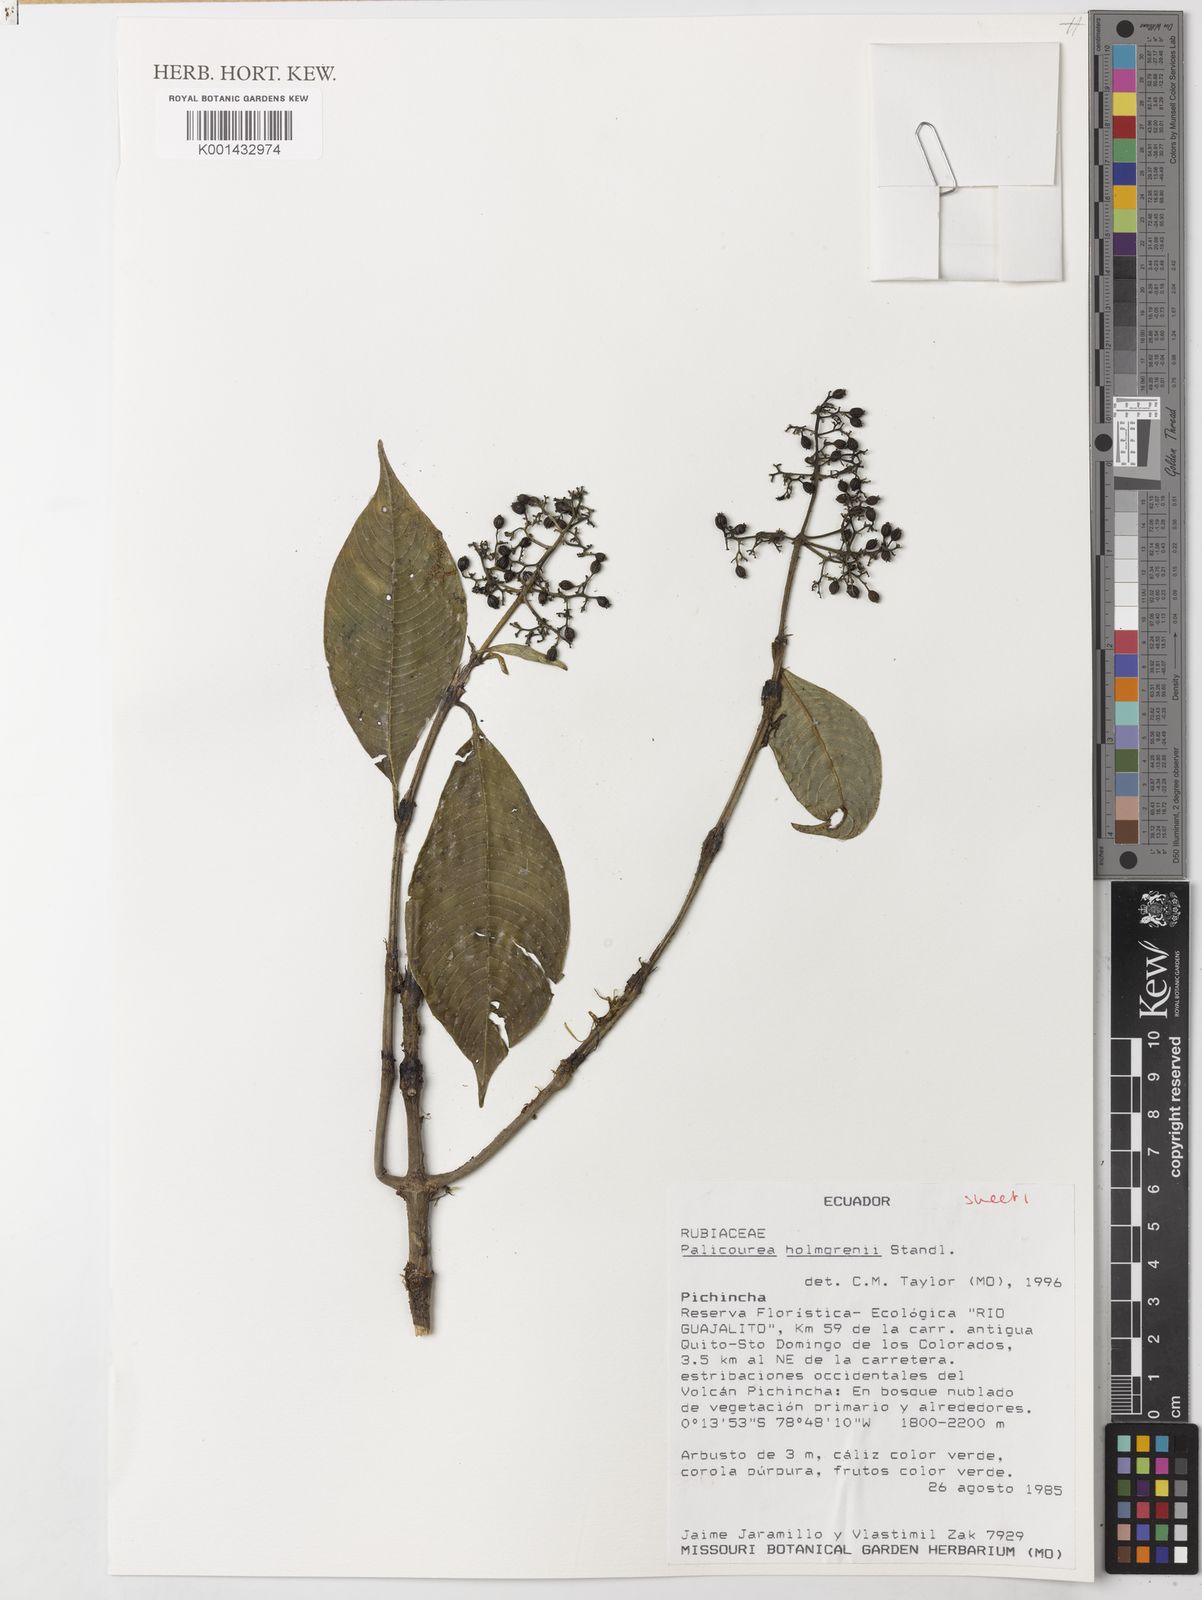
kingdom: Plantae
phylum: Tracheophyta
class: Magnoliopsida
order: Gentianales
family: Rubiaceae
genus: Palicourea
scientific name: Palicourea holmgrenii
